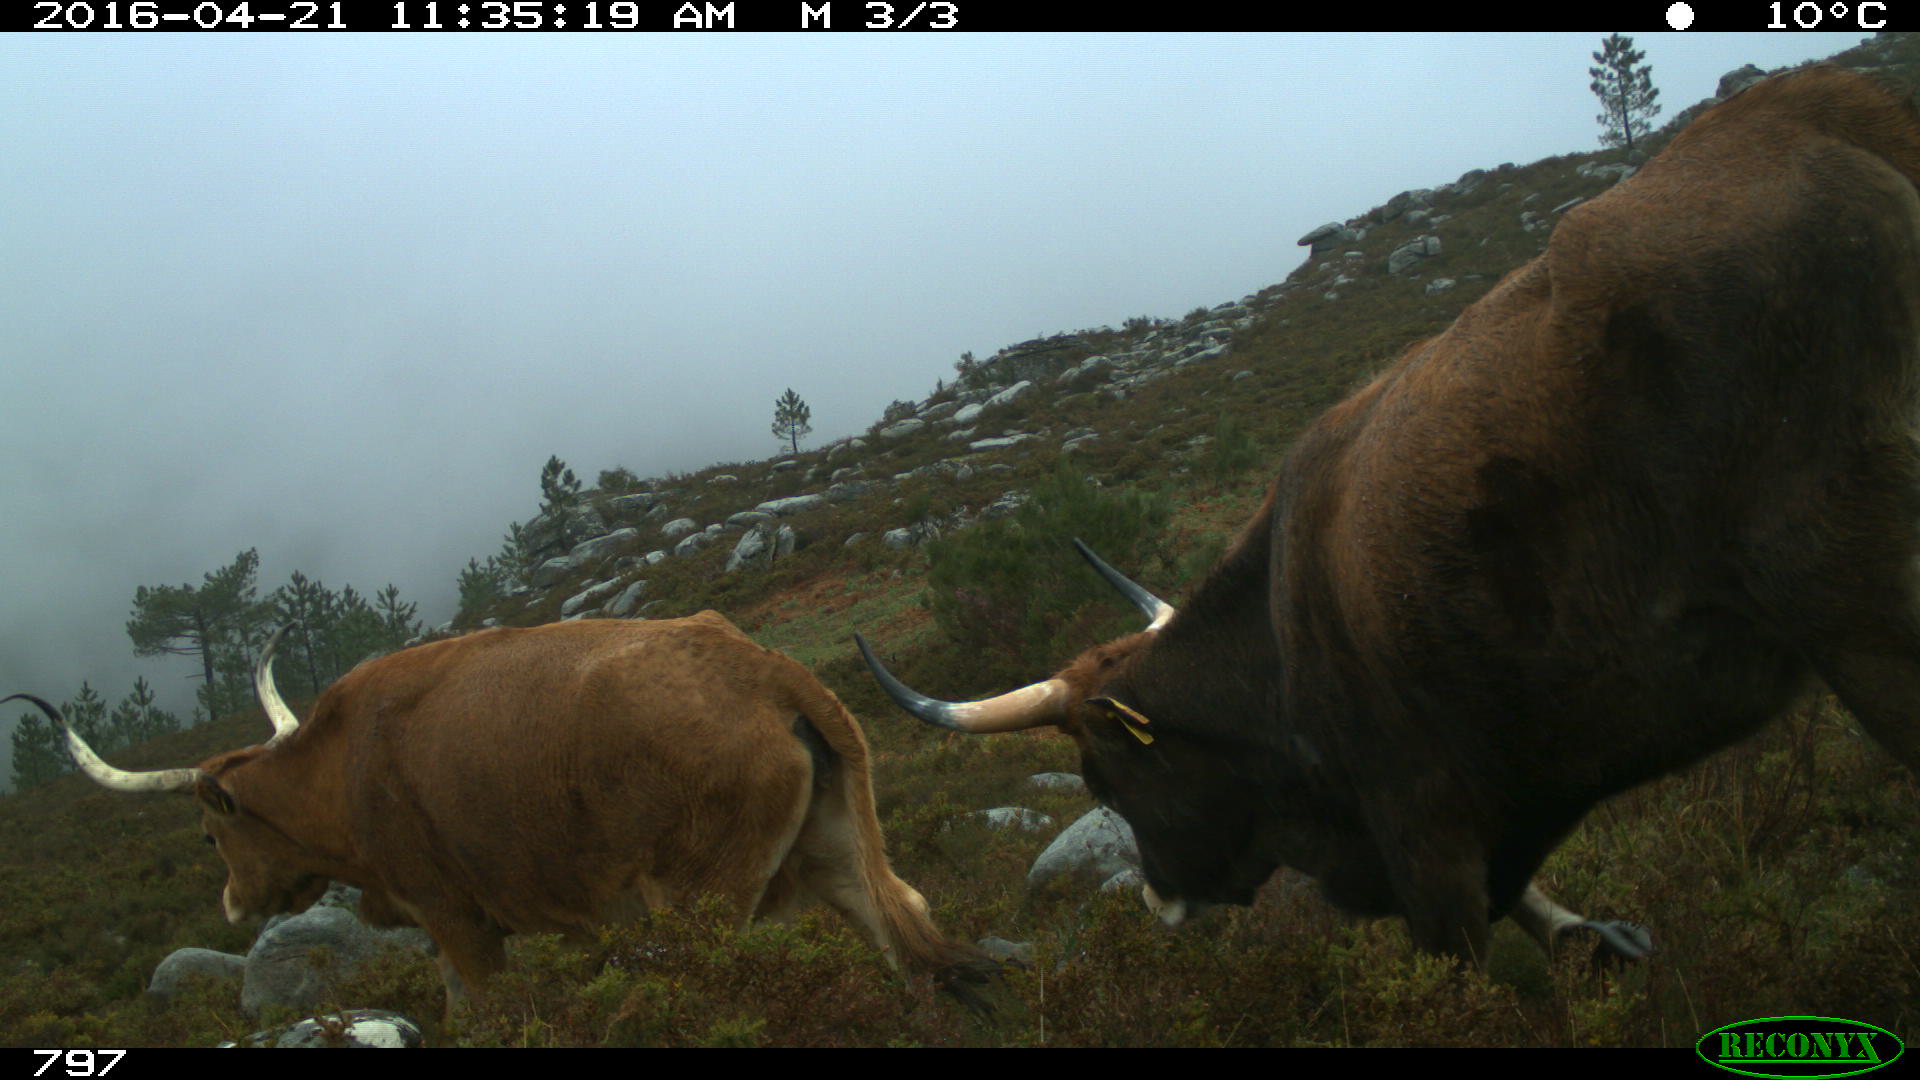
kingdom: Animalia
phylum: Chordata
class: Mammalia
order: Artiodactyla
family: Bovidae
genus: Bos
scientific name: Bos taurus
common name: Domesticated cattle
